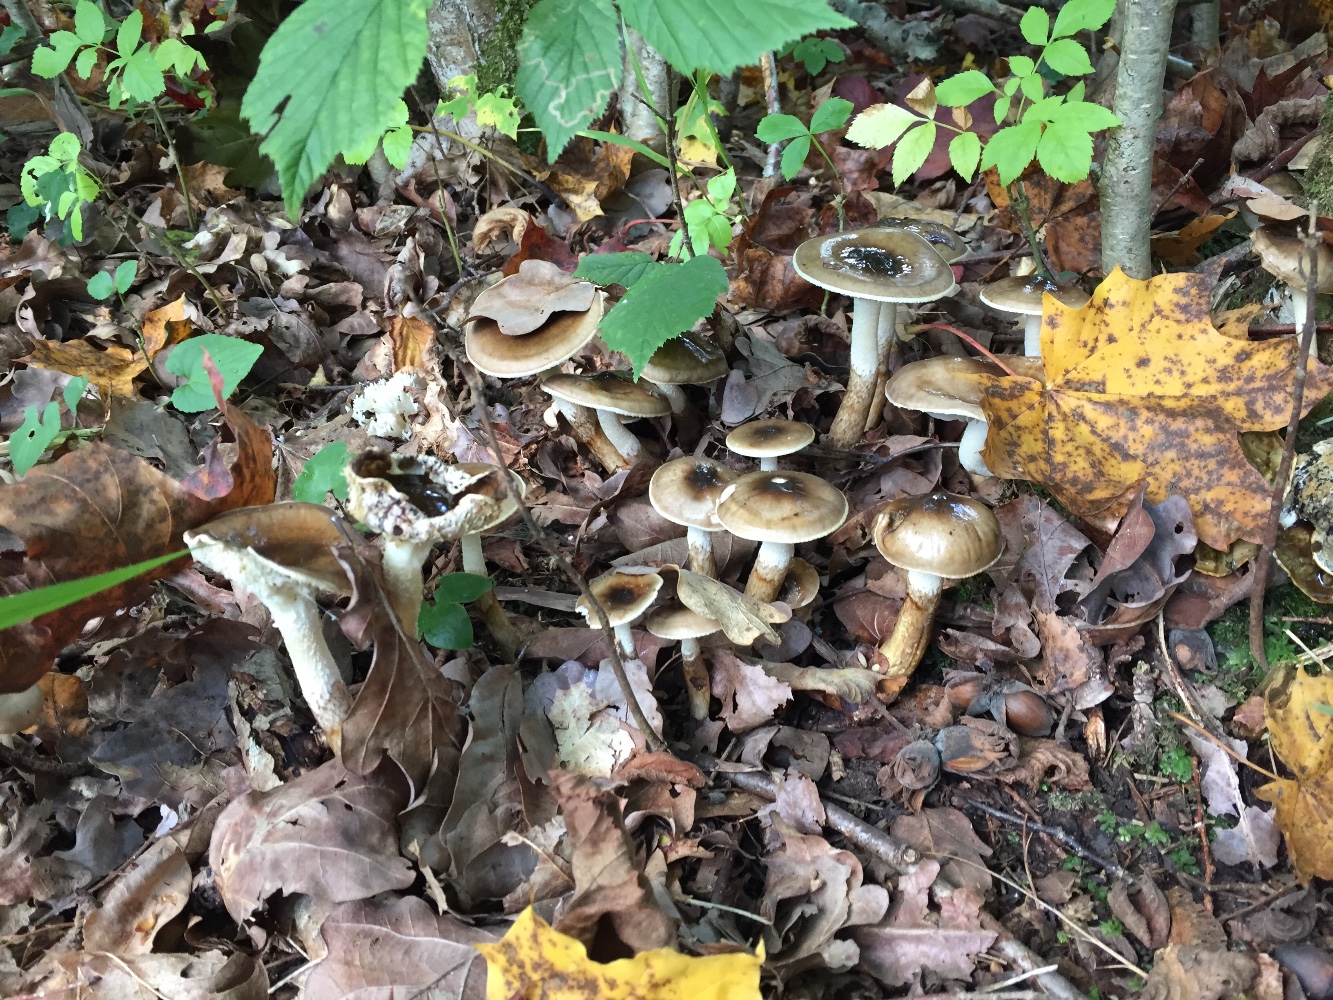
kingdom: Fungi
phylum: Basidiomycota
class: Agaricomycetes
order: Agaricales
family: Hygrophoraceae
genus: Hygrophorus
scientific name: Hygrophorus glutinifer
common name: tvefarvet sneglehat
